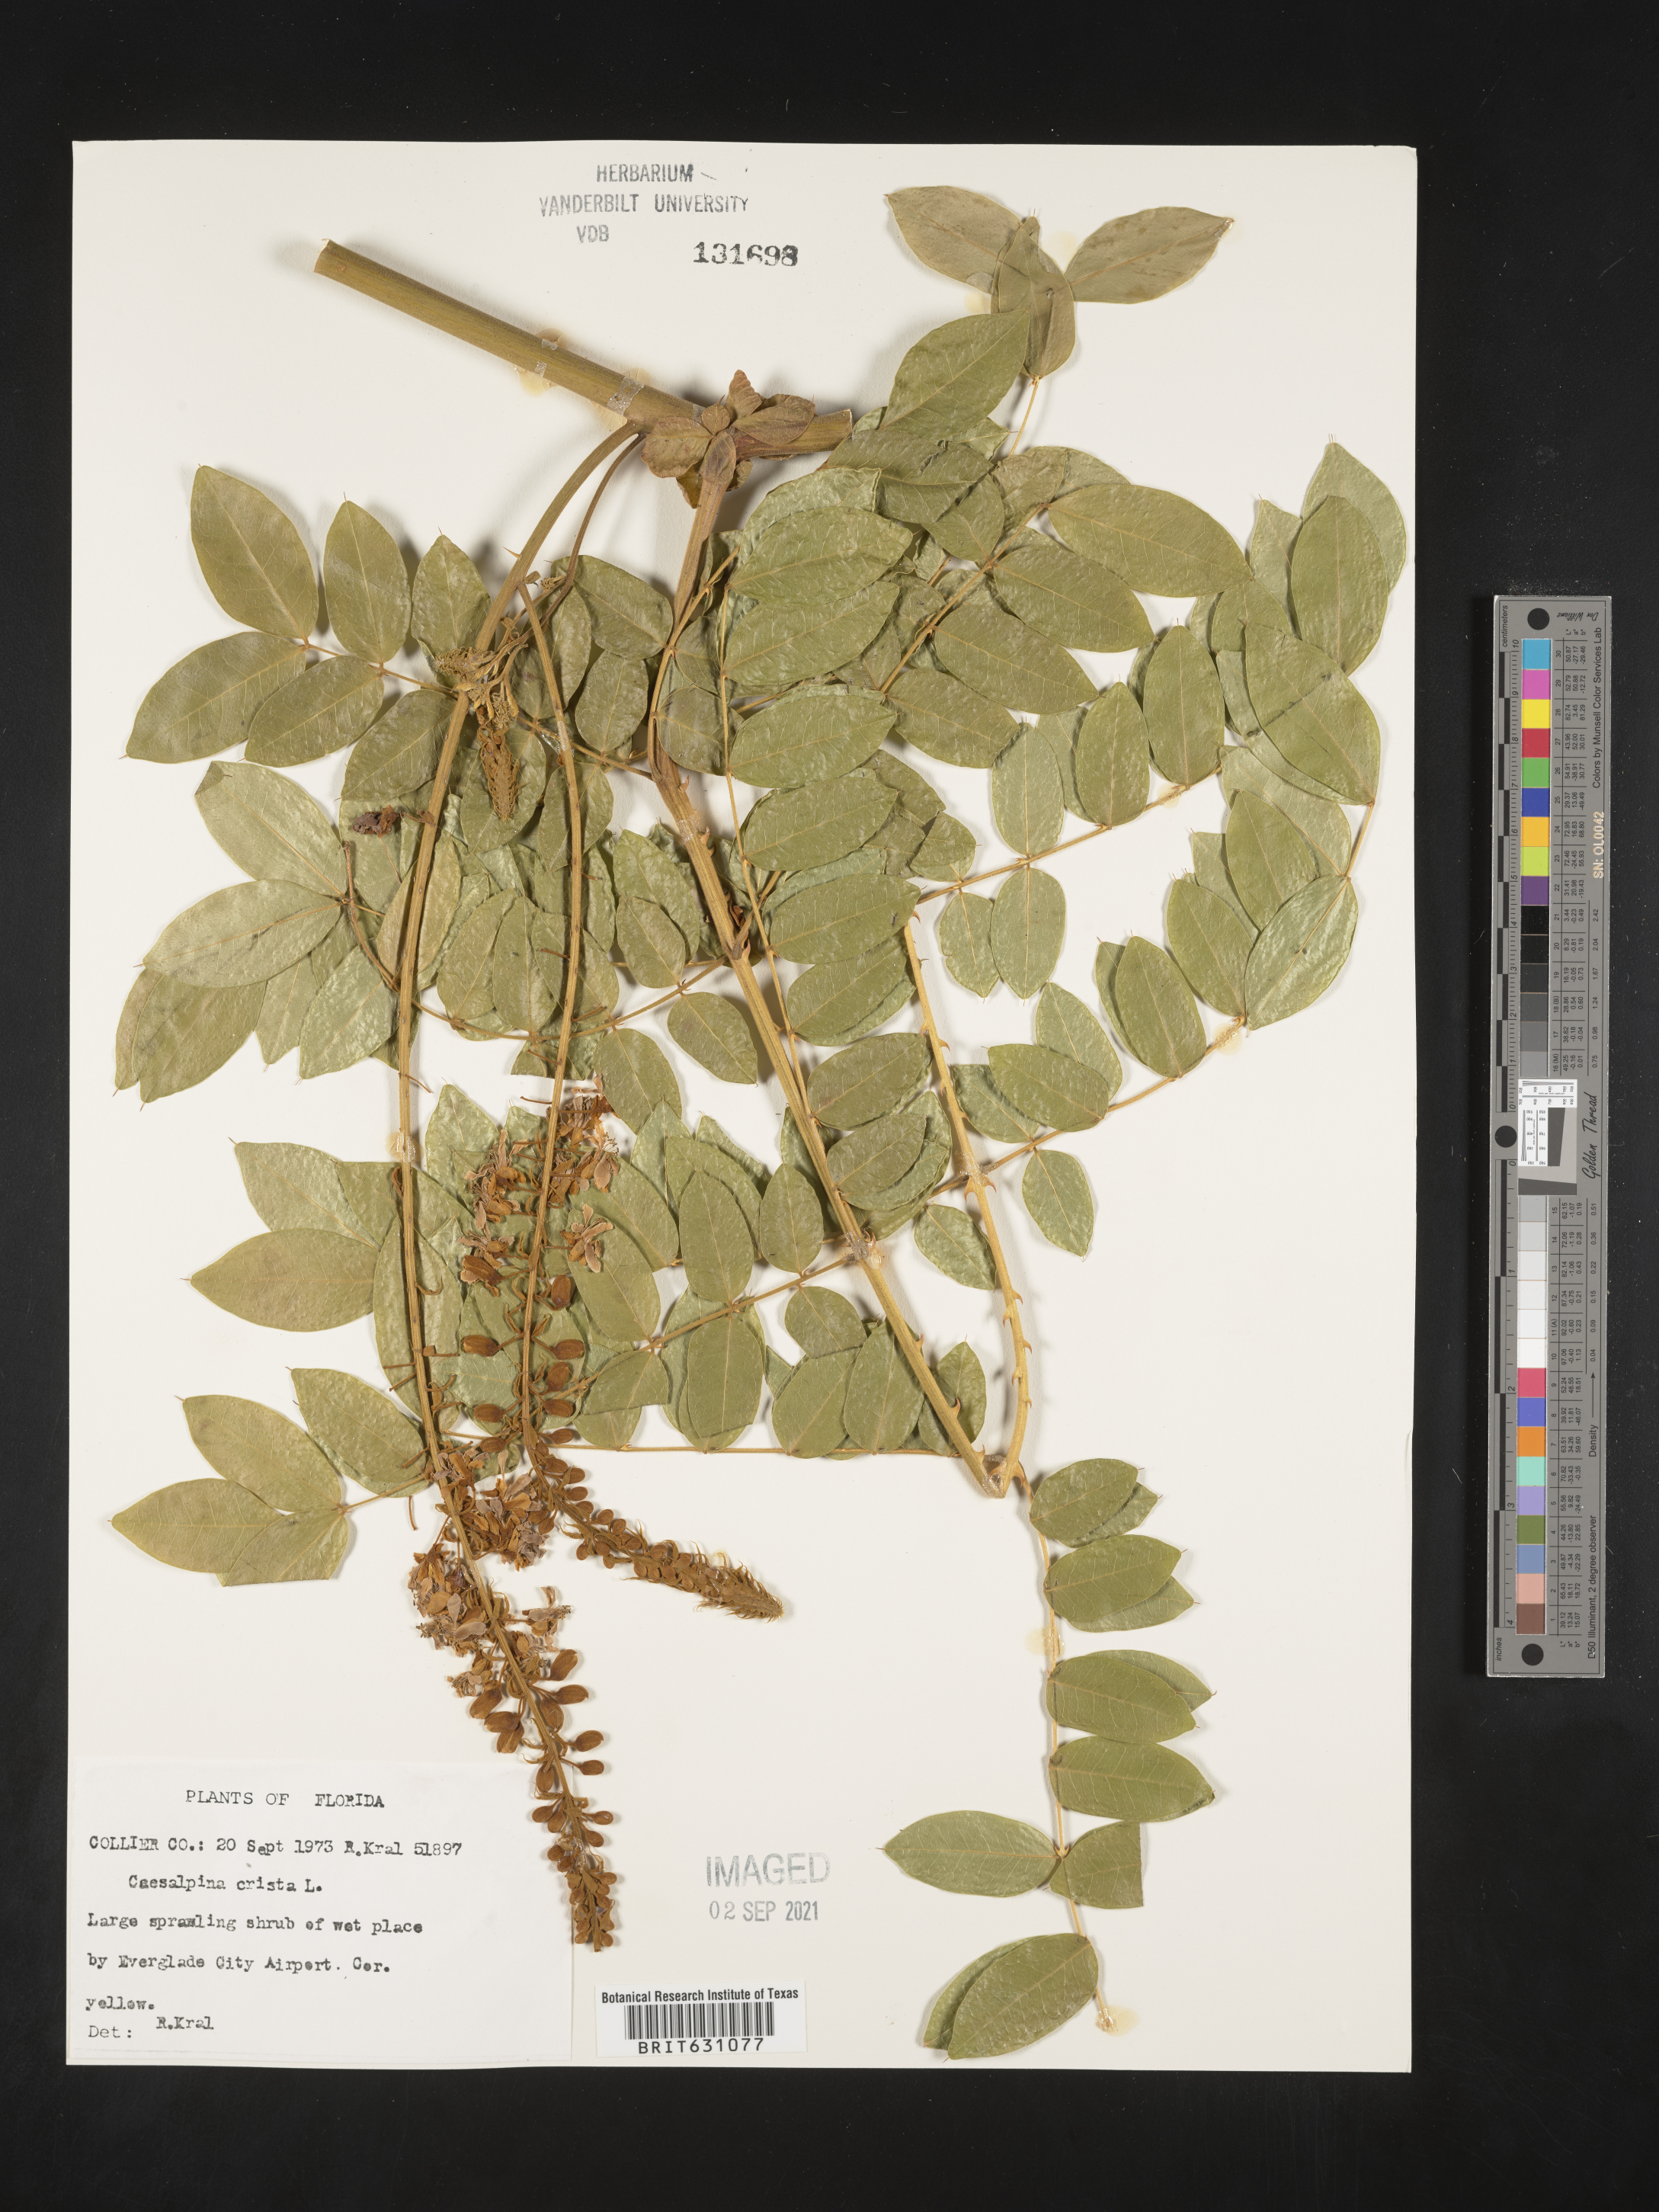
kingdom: Plantae
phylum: Tracheophyta
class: Magnoliopsida
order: Fabales
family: Fabaceae
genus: Caesalpinia
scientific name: Caesalpinia
